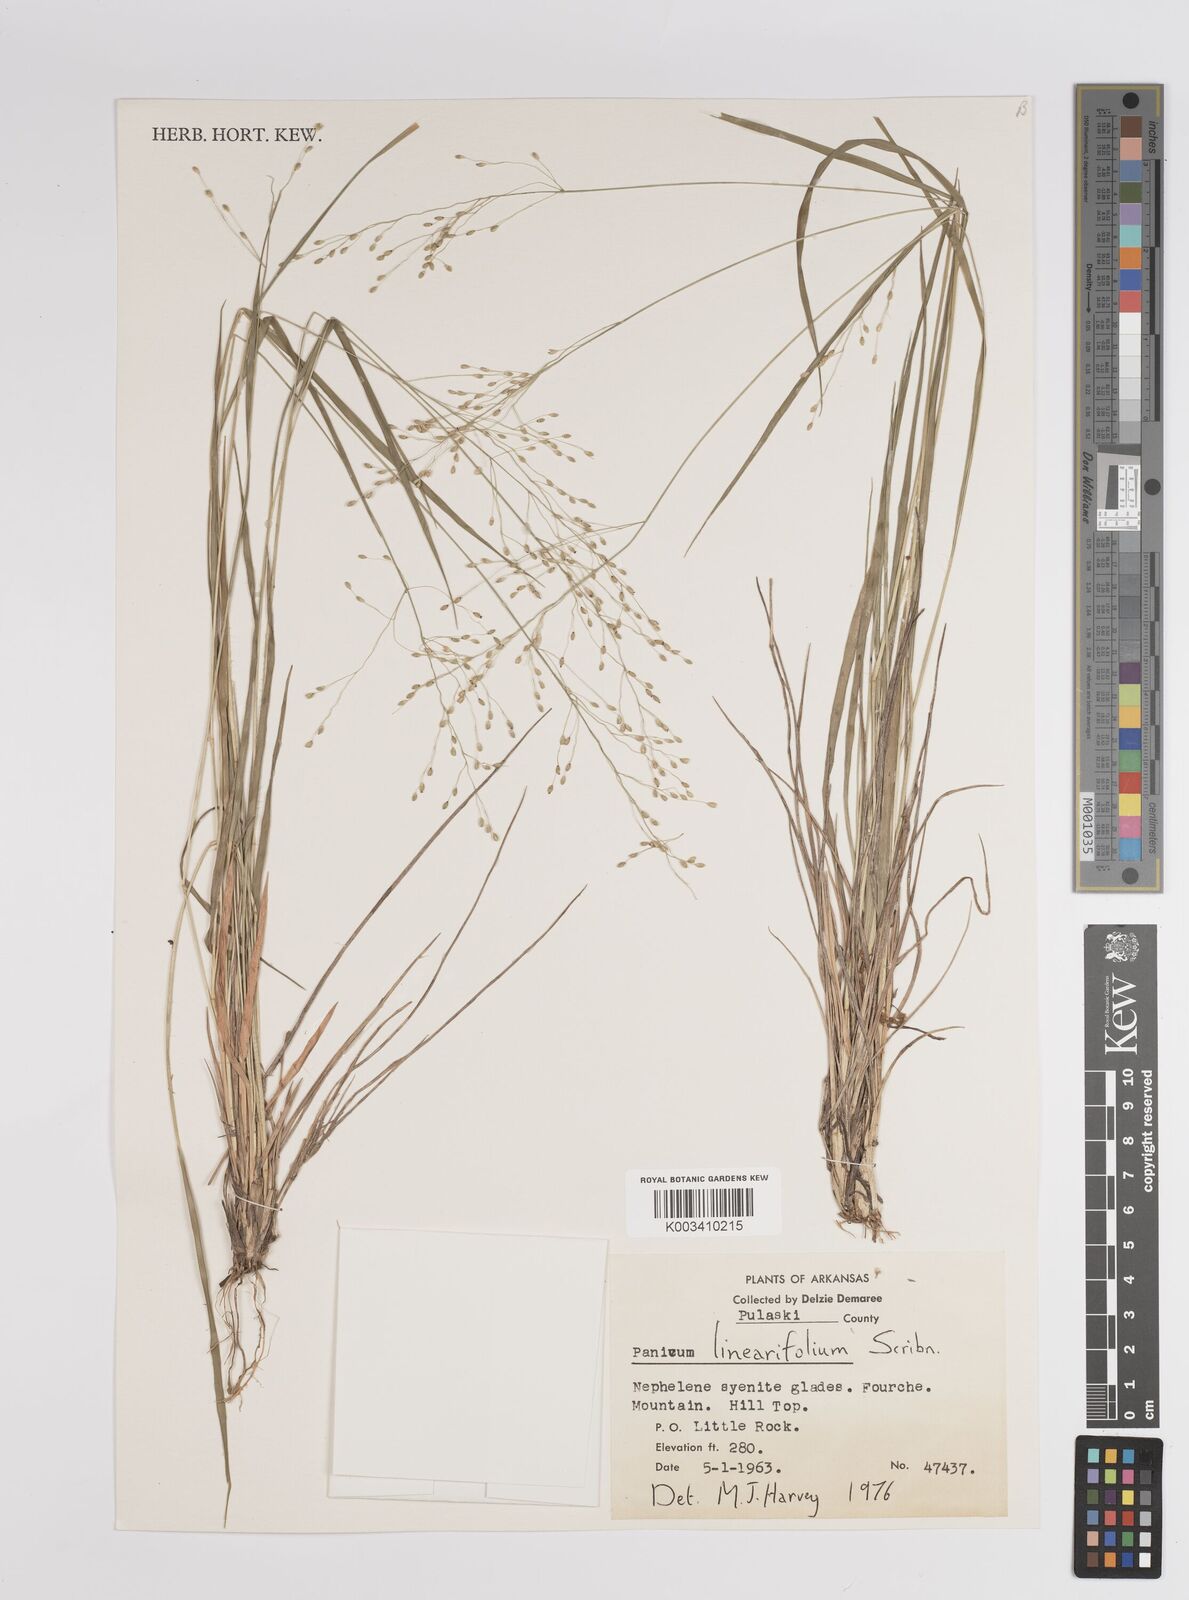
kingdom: Plantae
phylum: Tracheophyta
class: Liliopsida
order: Poales
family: Poaceae
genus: Dichanthelium
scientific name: Dichanthelium linearifolium
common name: Linear-leaved panicgrass
